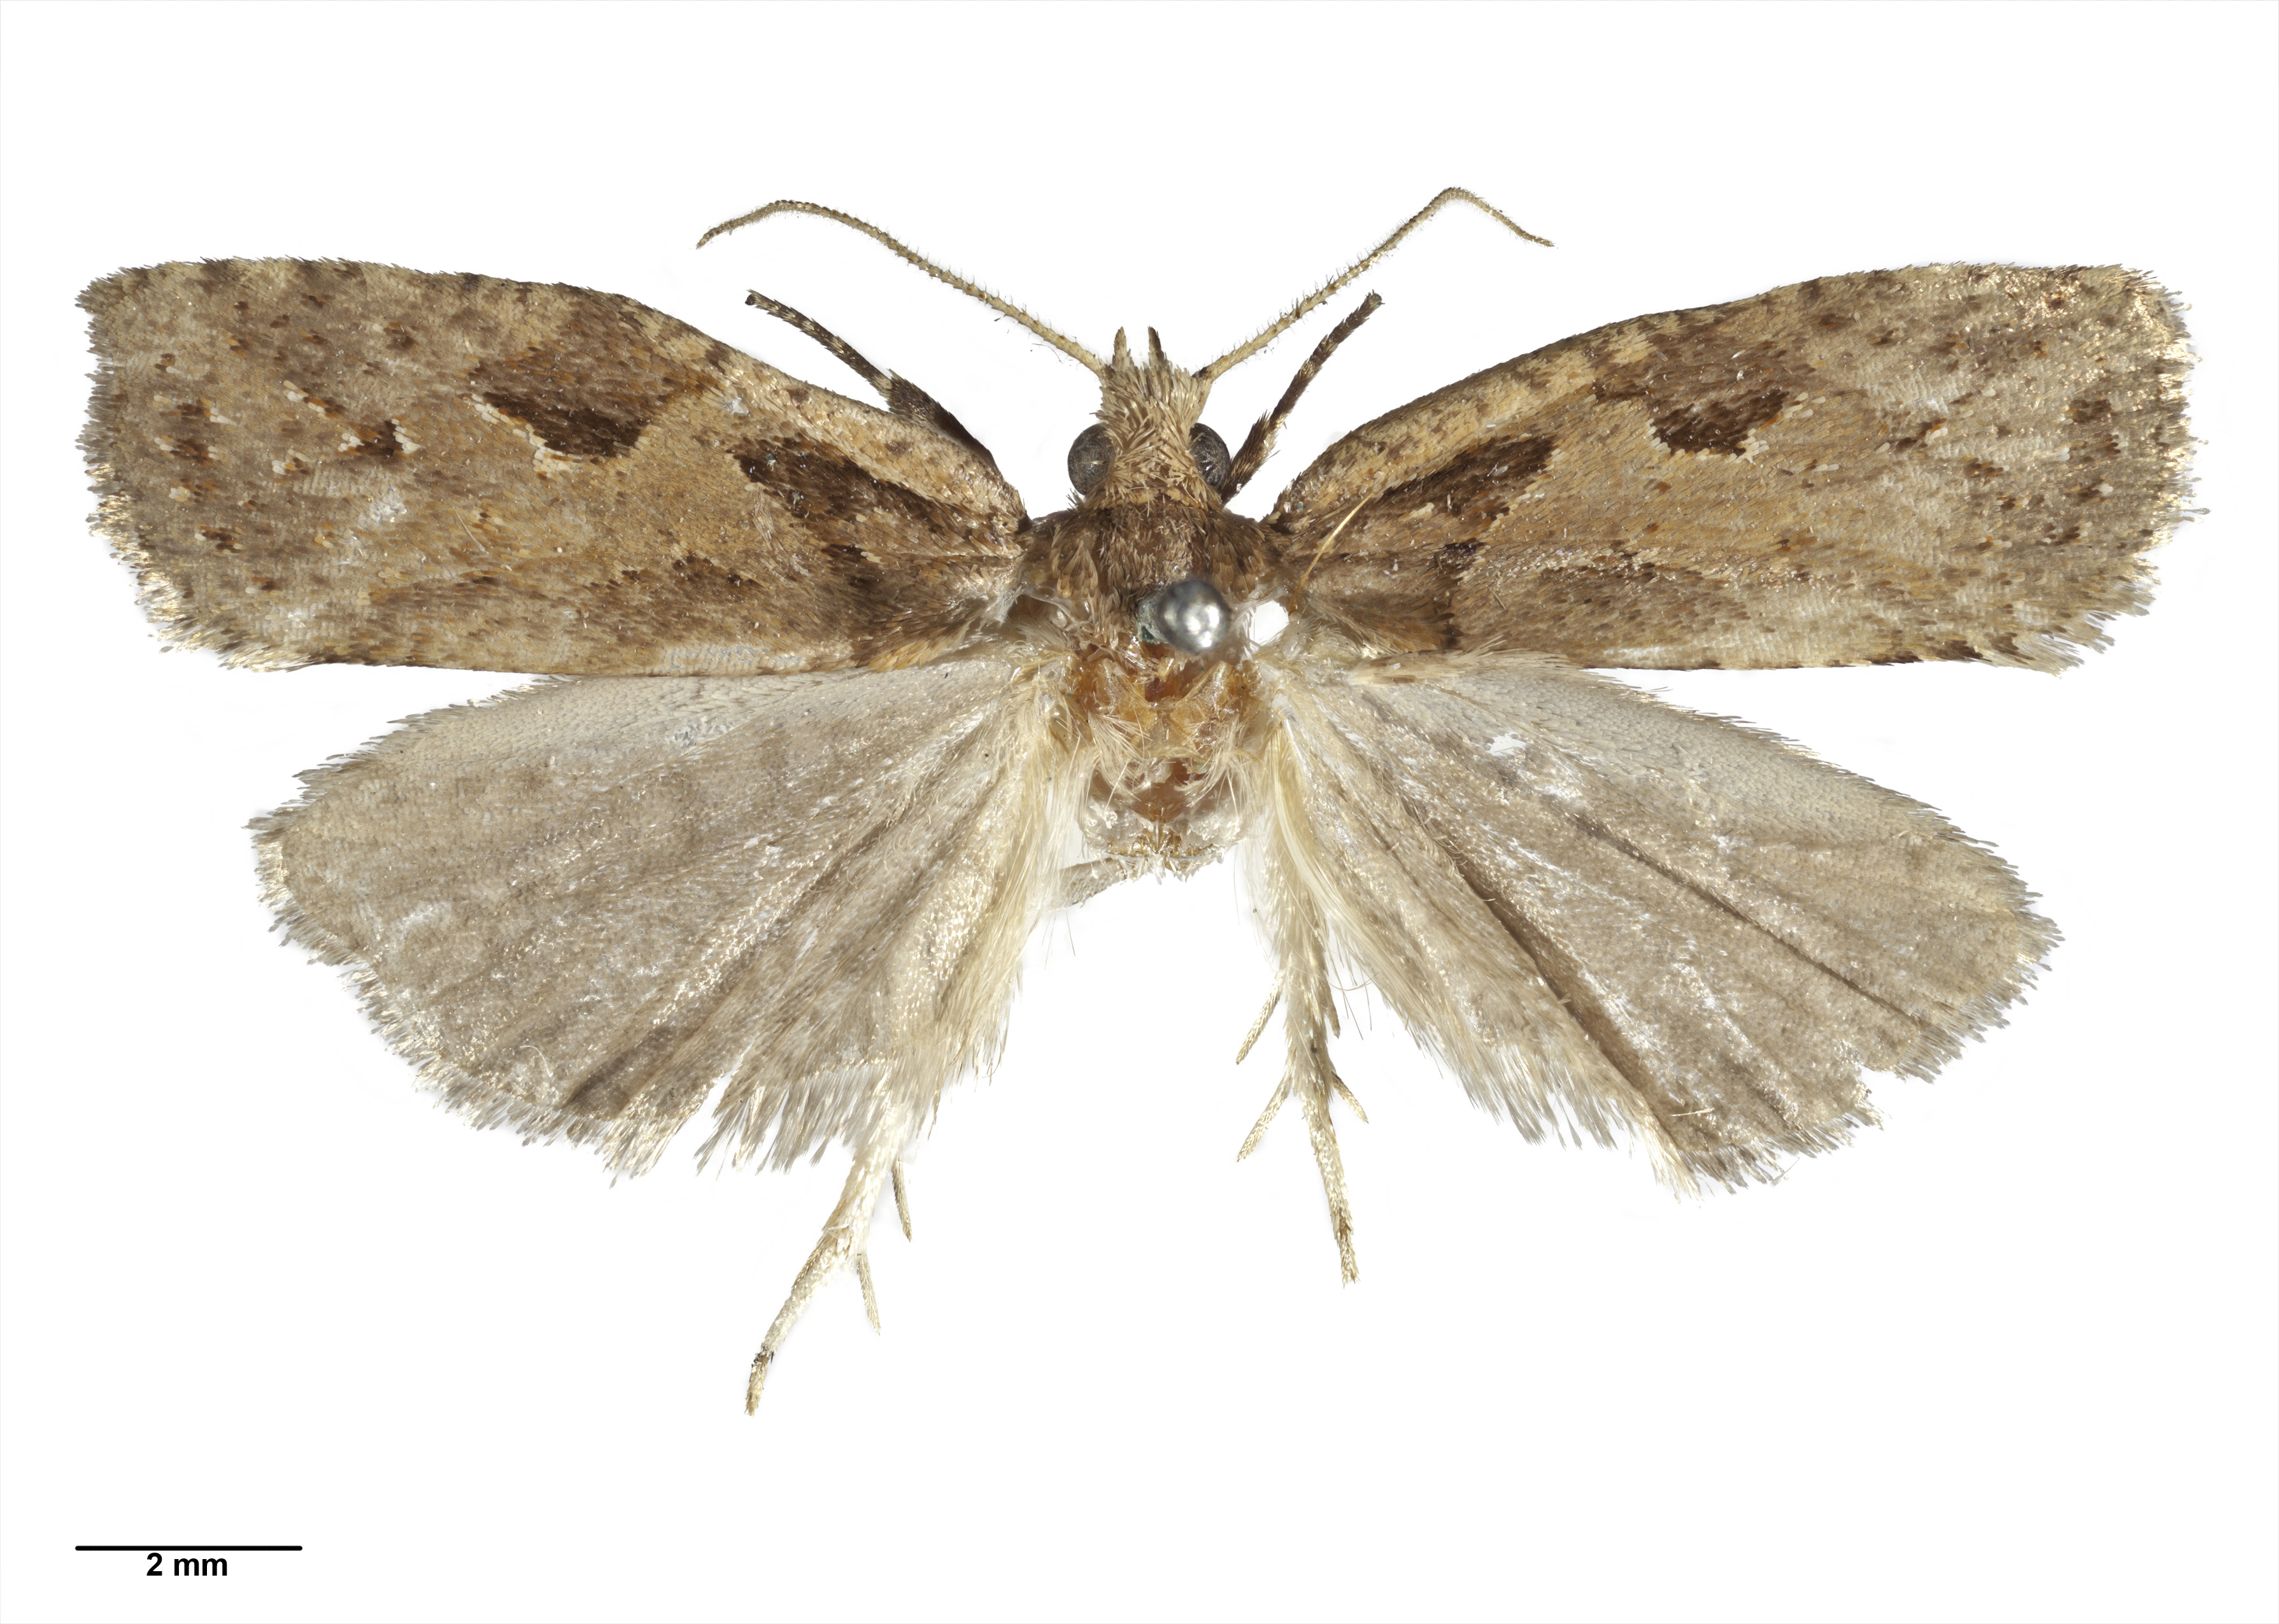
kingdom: Animalia
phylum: Arthropoda
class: Insecta
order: Lepidoptera
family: Tortricidae
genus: Ctenopseustis
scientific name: Ctenopseustis fraterna
